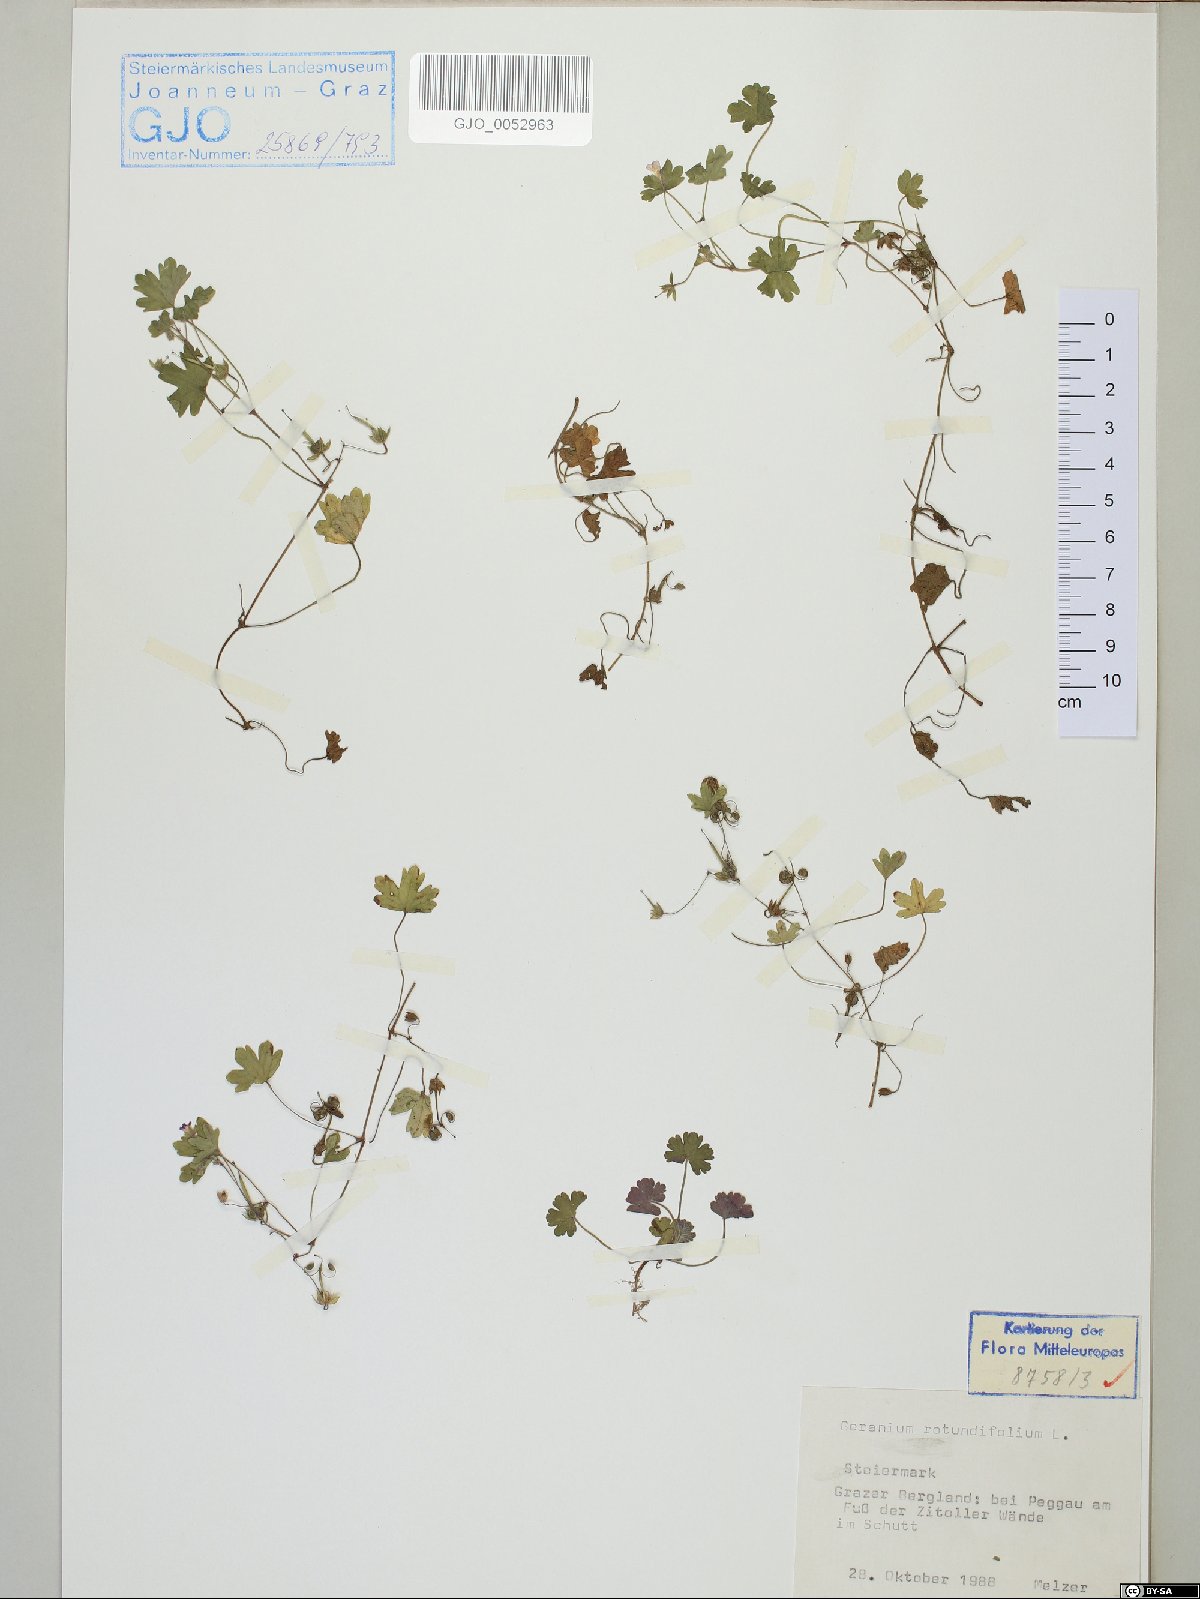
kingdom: Plantae
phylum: Tracheophyta
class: Magnoliopsida
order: Geraniales
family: Geraniaceae
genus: Geranium
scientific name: Geranium rotundifolium
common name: Round-leaved crane's-bill
